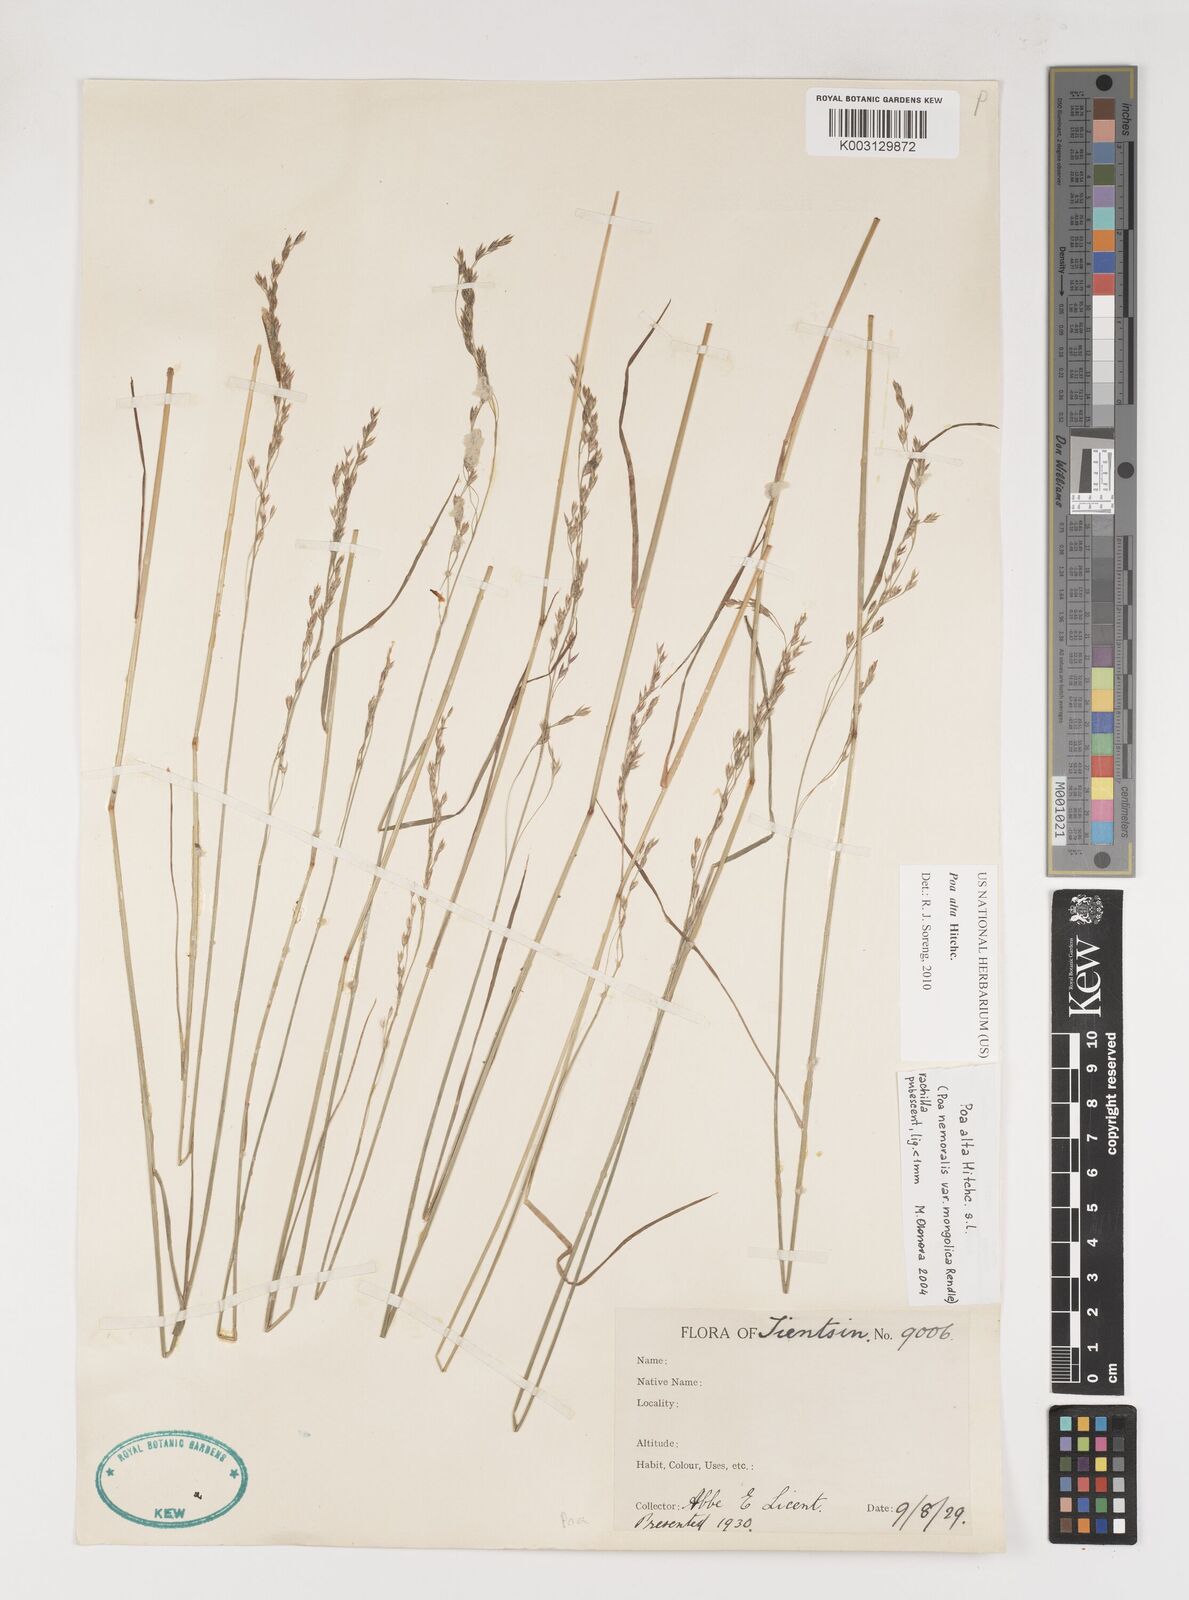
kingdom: Plantae
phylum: Tracheophyta
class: Liliopsida
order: Poales
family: Poaceae
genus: Poa
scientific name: Poa alta
